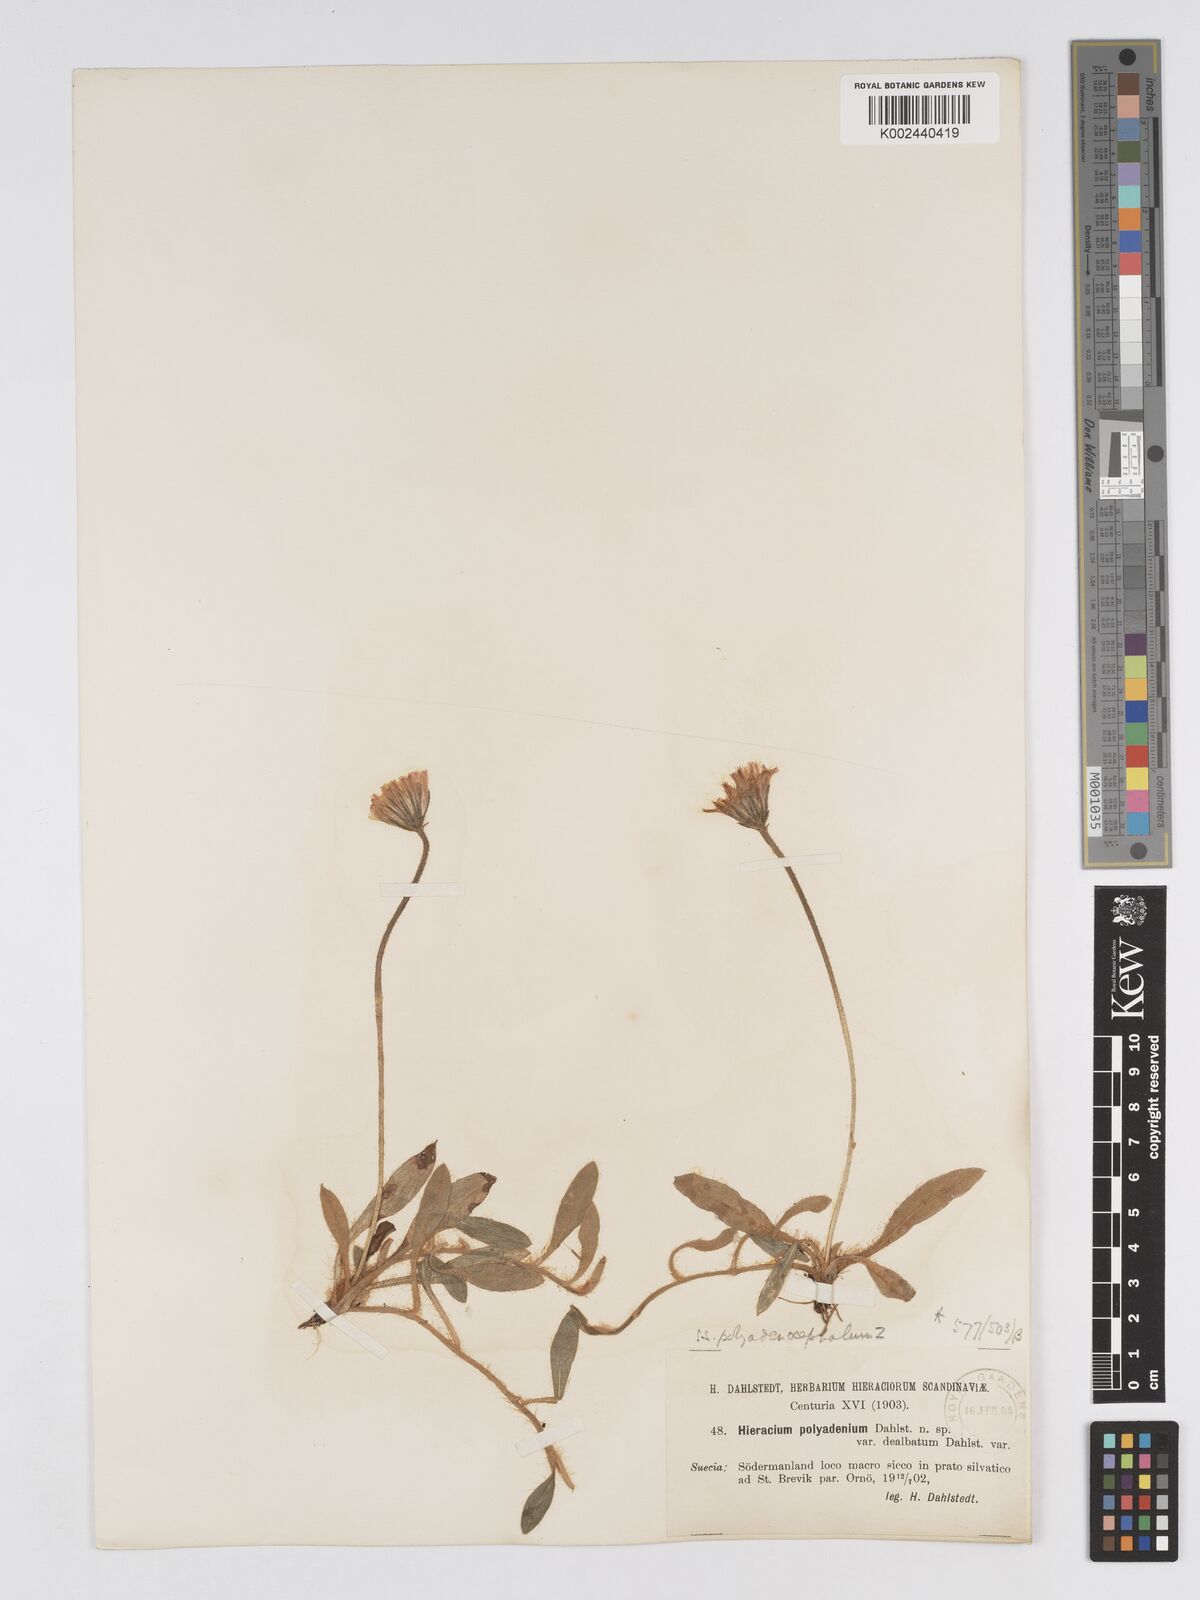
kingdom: Plantae
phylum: Tracheophyta
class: Magnoliopsida
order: Asterales
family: Asteraceae
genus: Hieracium
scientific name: Hieracium
